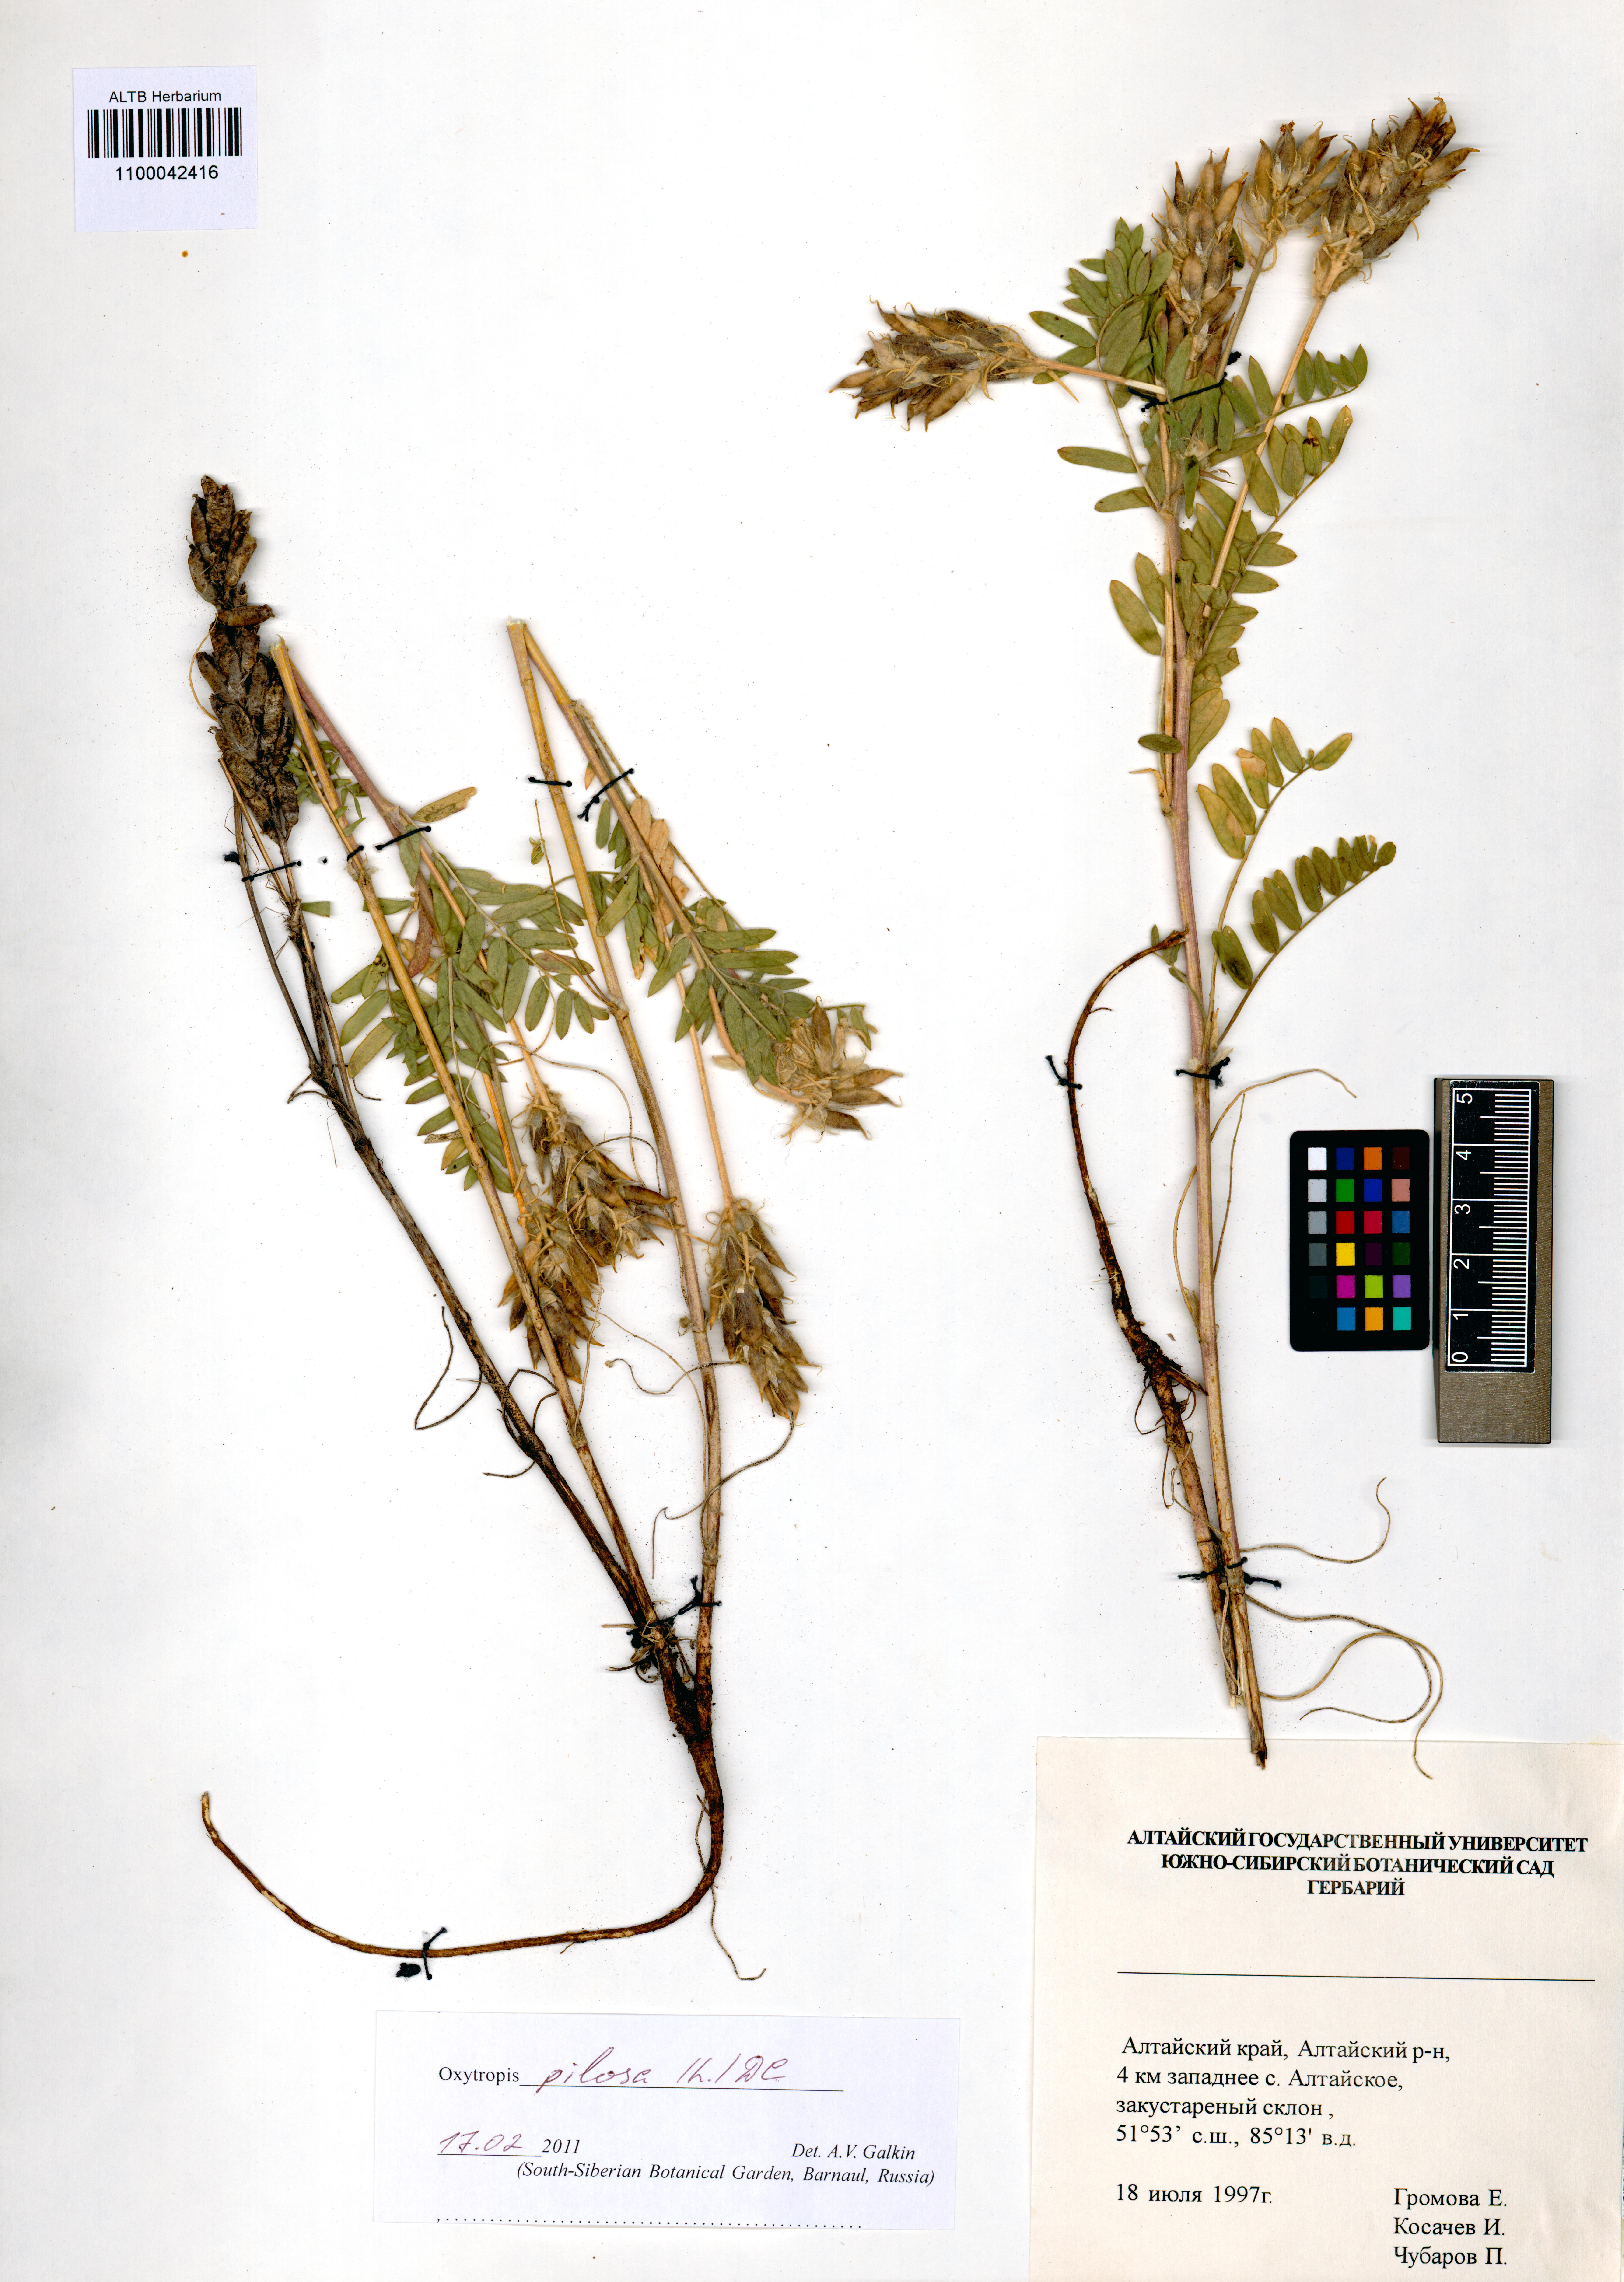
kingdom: Plantae
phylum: Tracheophyta
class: Magnoliopsida
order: Fabales
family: Fabaceae
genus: Oxytropis
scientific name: Oxytropis pilosa
